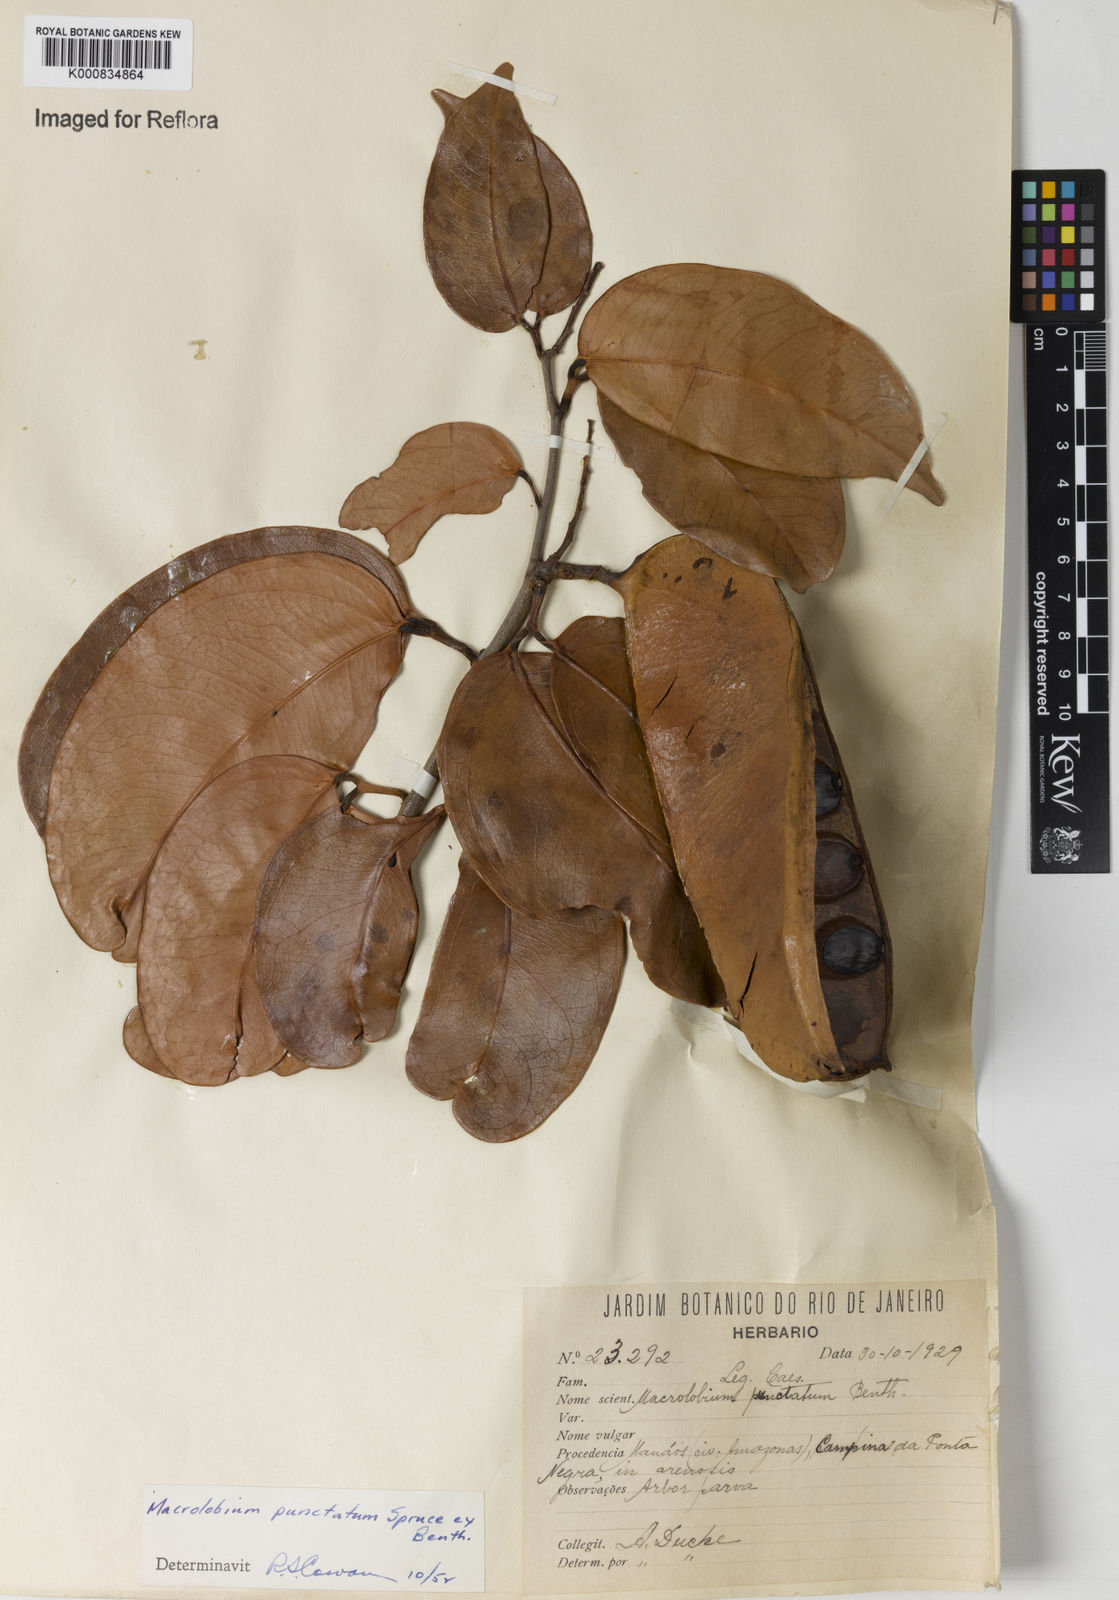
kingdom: Plantae
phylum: Tracheophyta
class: Magnoliopsida
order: Fabales
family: Fabaceae
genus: Macrolobium
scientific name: Macrolobium punctatum
